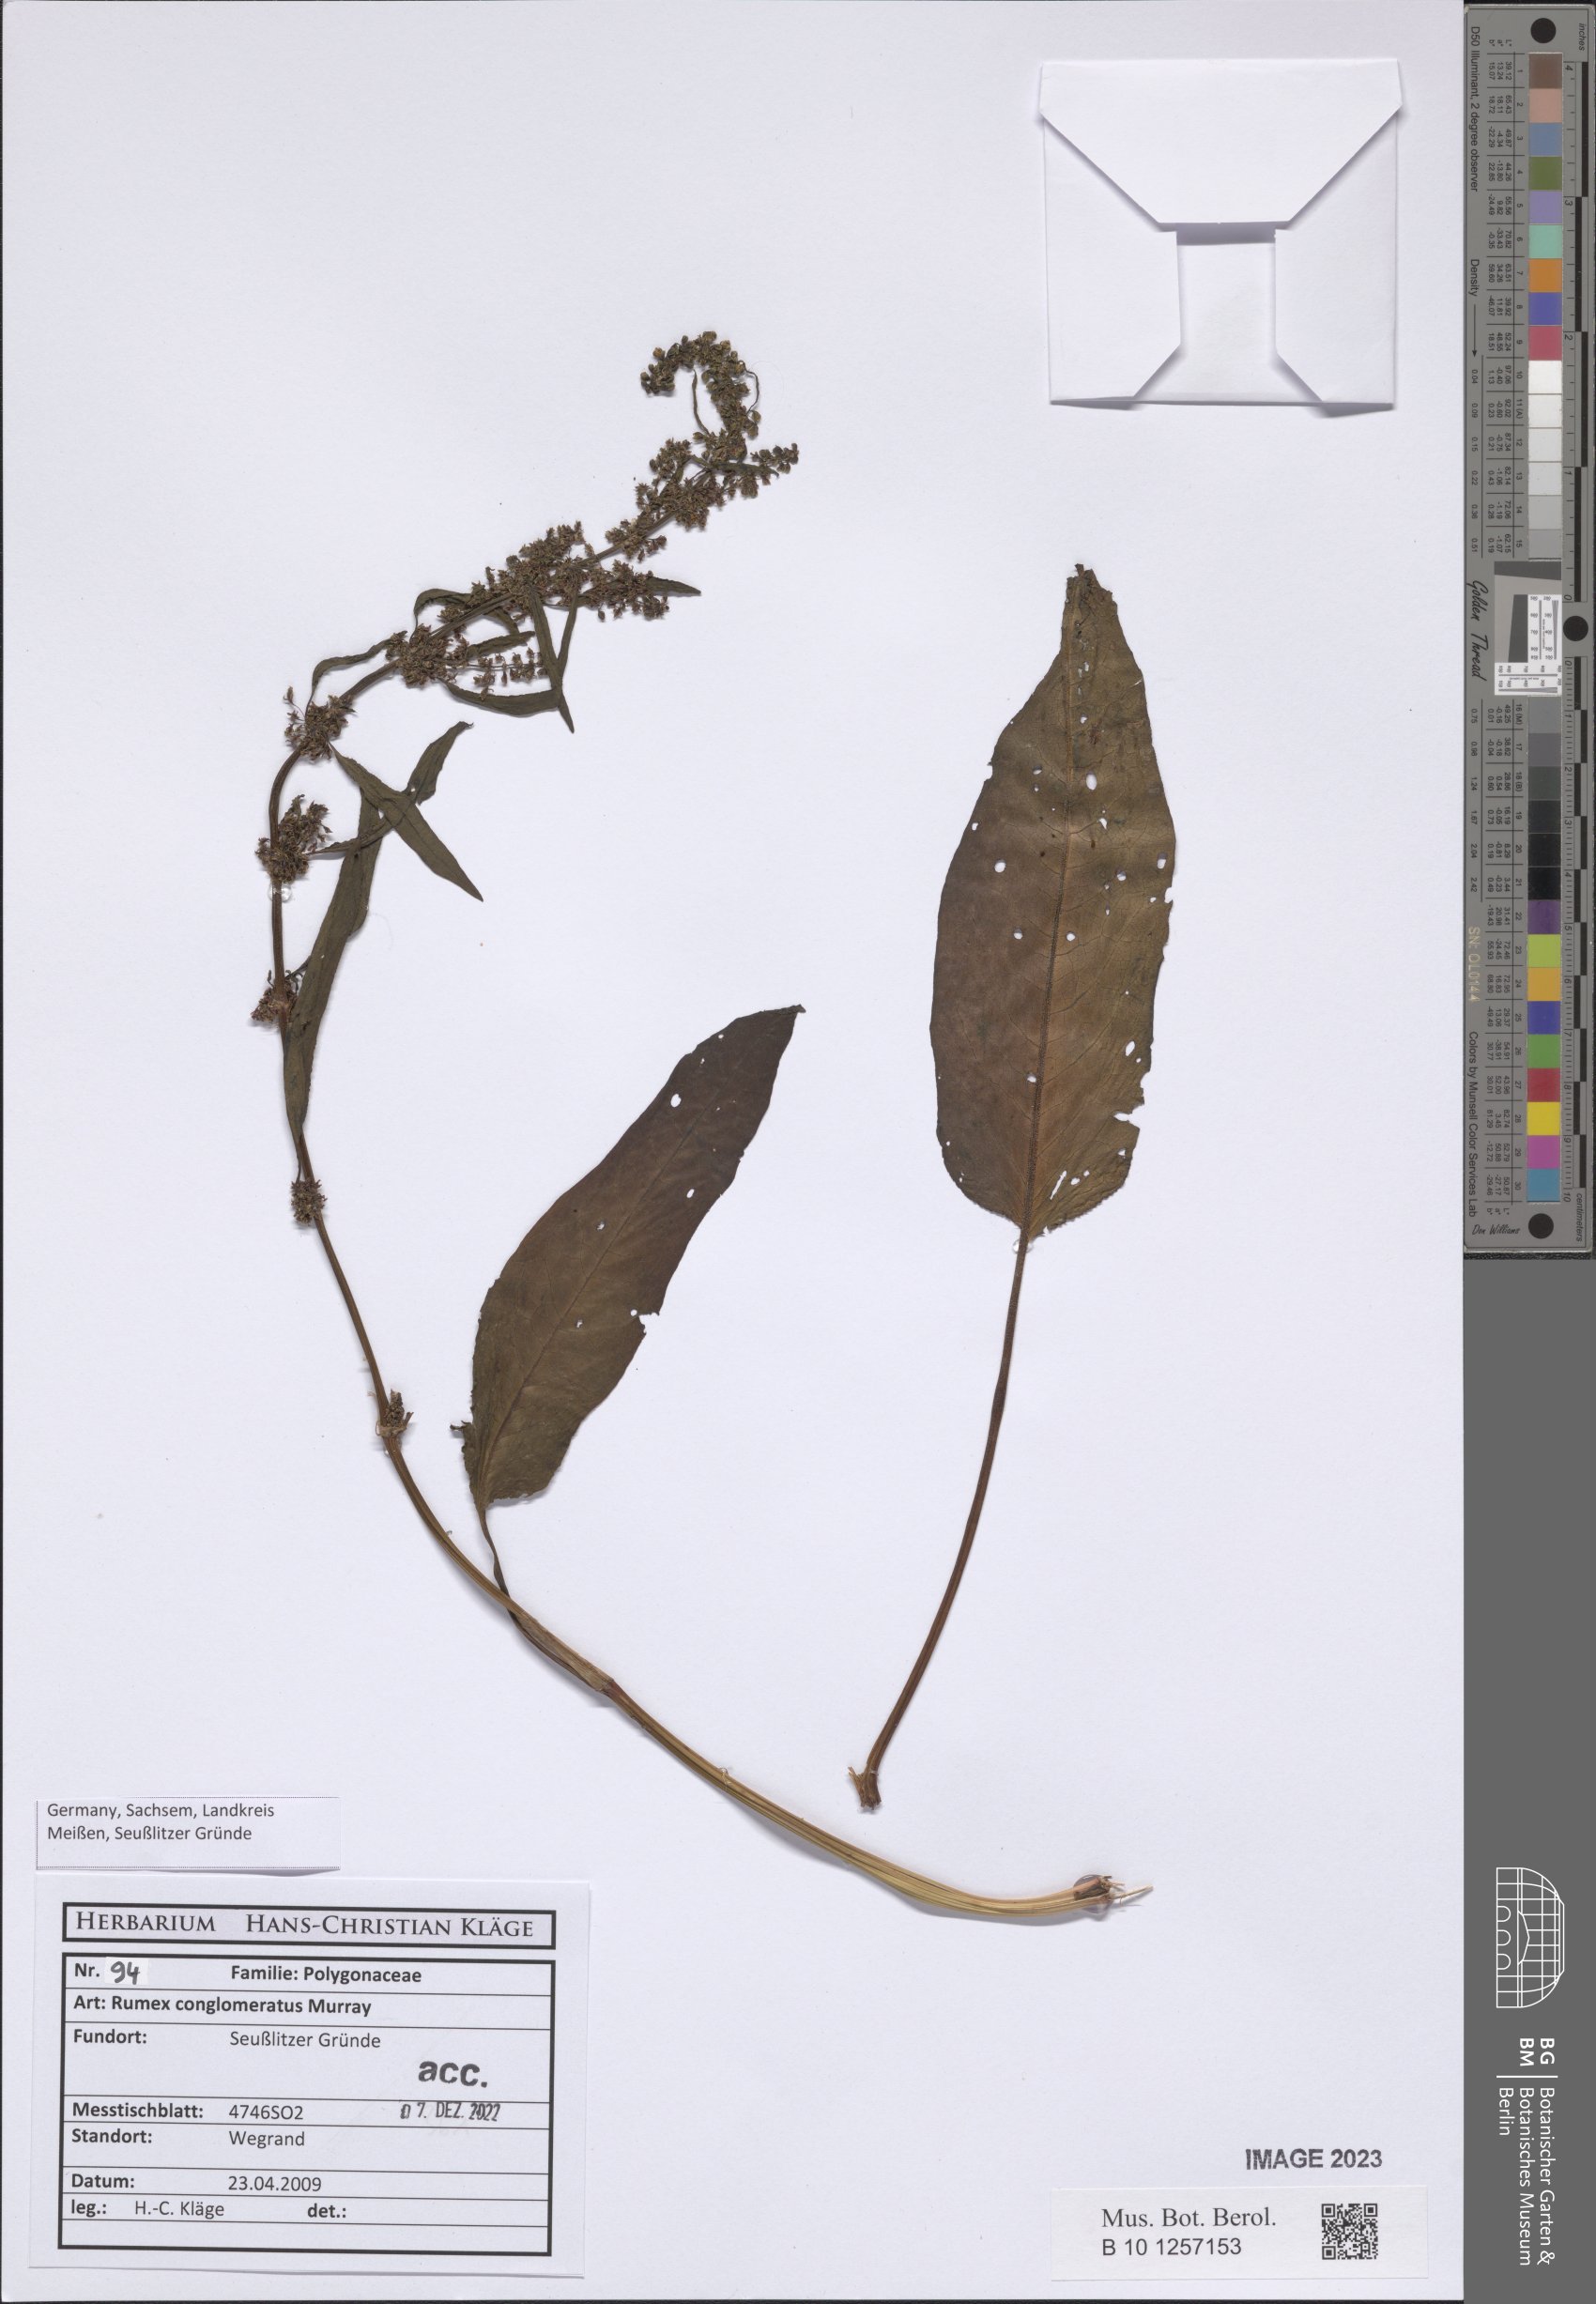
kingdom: Plantae
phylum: Tracheophyta
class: Magnoliopsida
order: Caryophyllales
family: Polygonaceae
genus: Rumex
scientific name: Rumex conglomeratus
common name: Clustered dock
